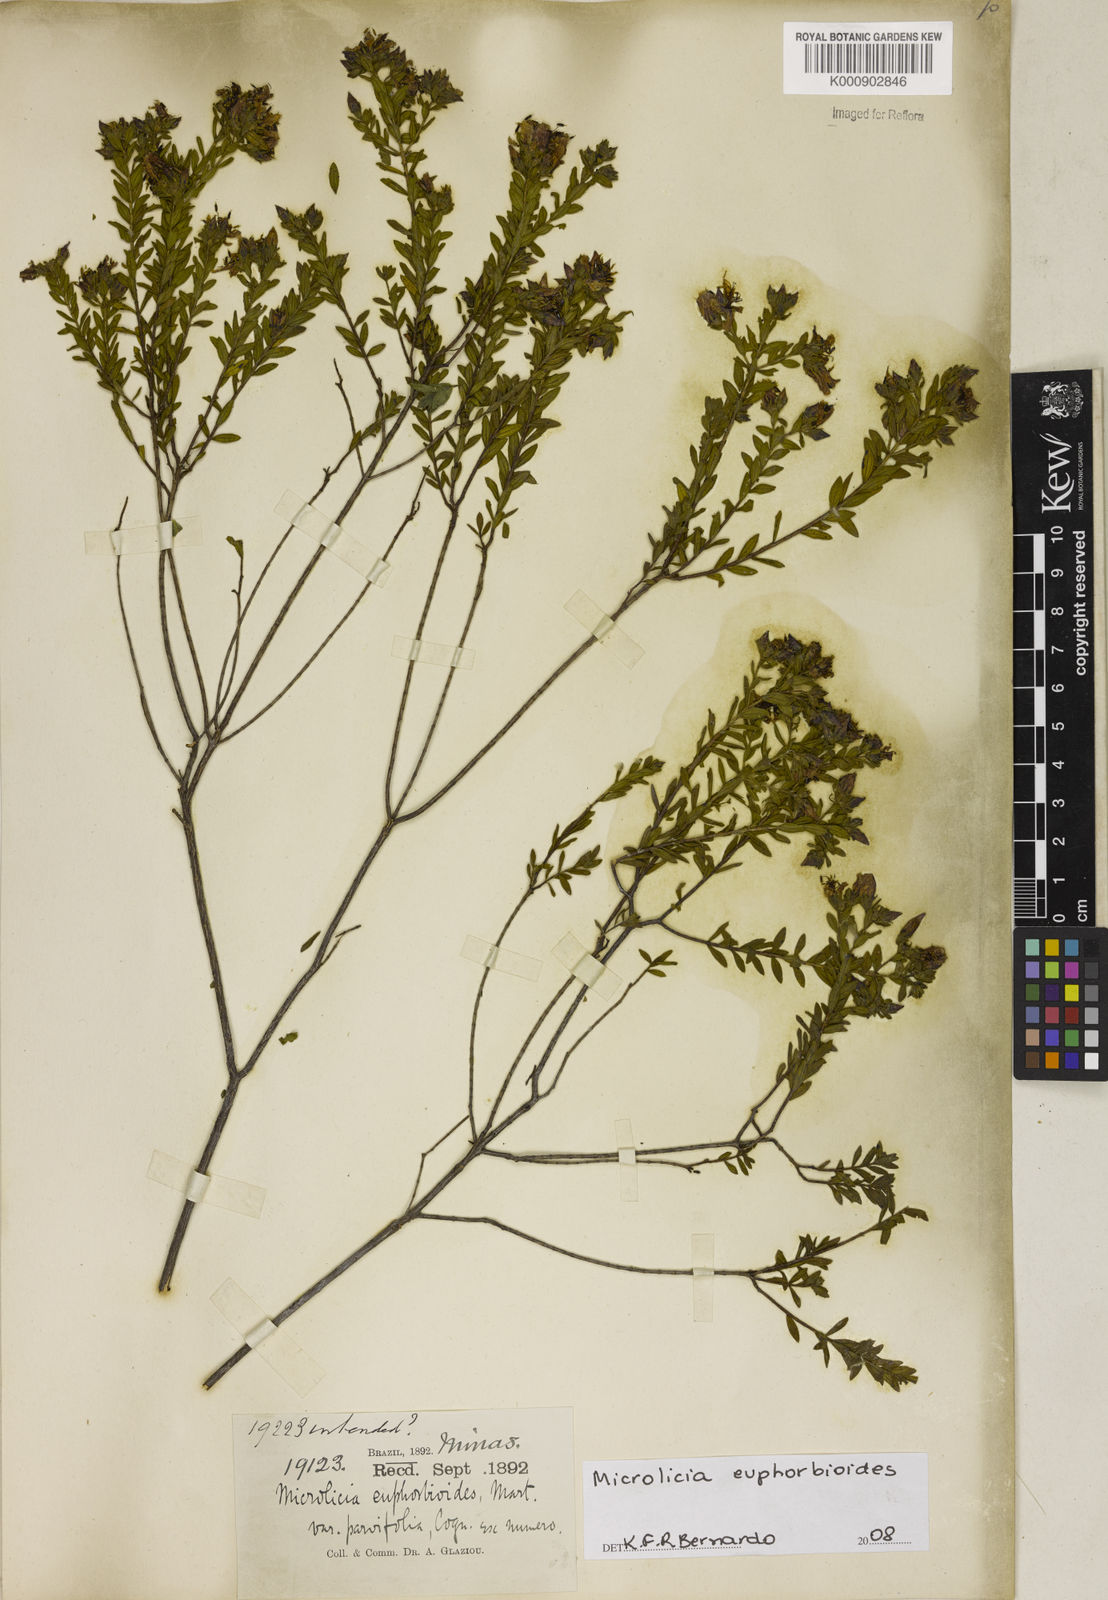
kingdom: Plantae
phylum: Tracheophyta
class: Magnoliopsida
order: Malpighiales
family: Podostemaceae
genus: Diamantina
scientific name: Diamantina
